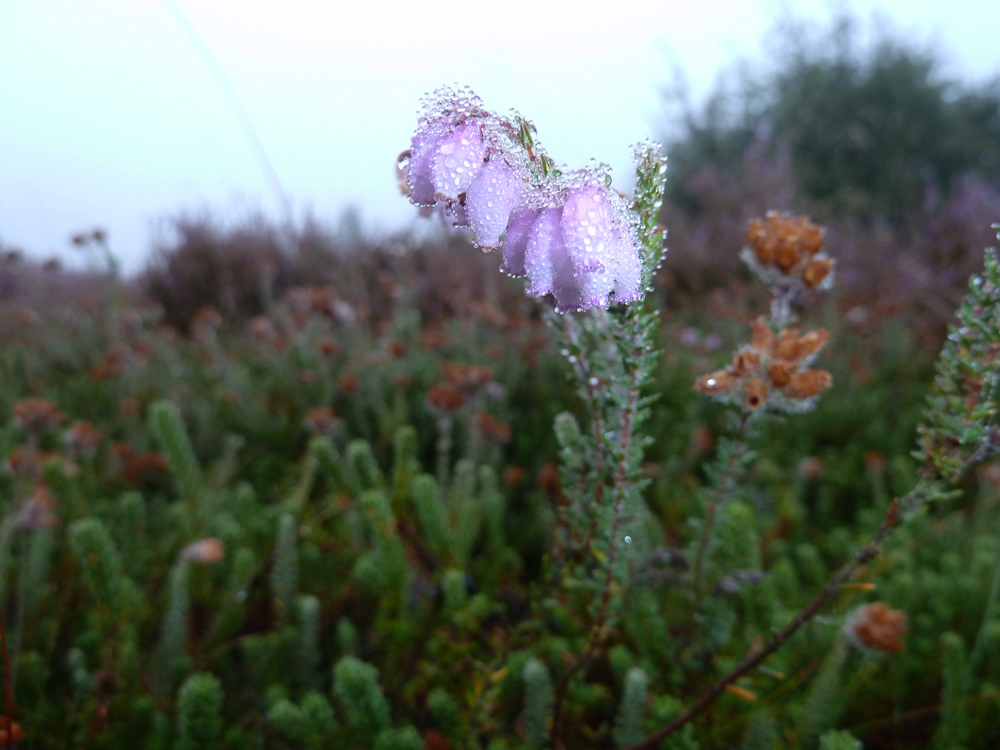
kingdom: Plantae
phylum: Tracheophyta
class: Magnoliopsida
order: Ericales
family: Ericaceae
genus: Erica
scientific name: Erica tetralix
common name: Cross-leaved heath
